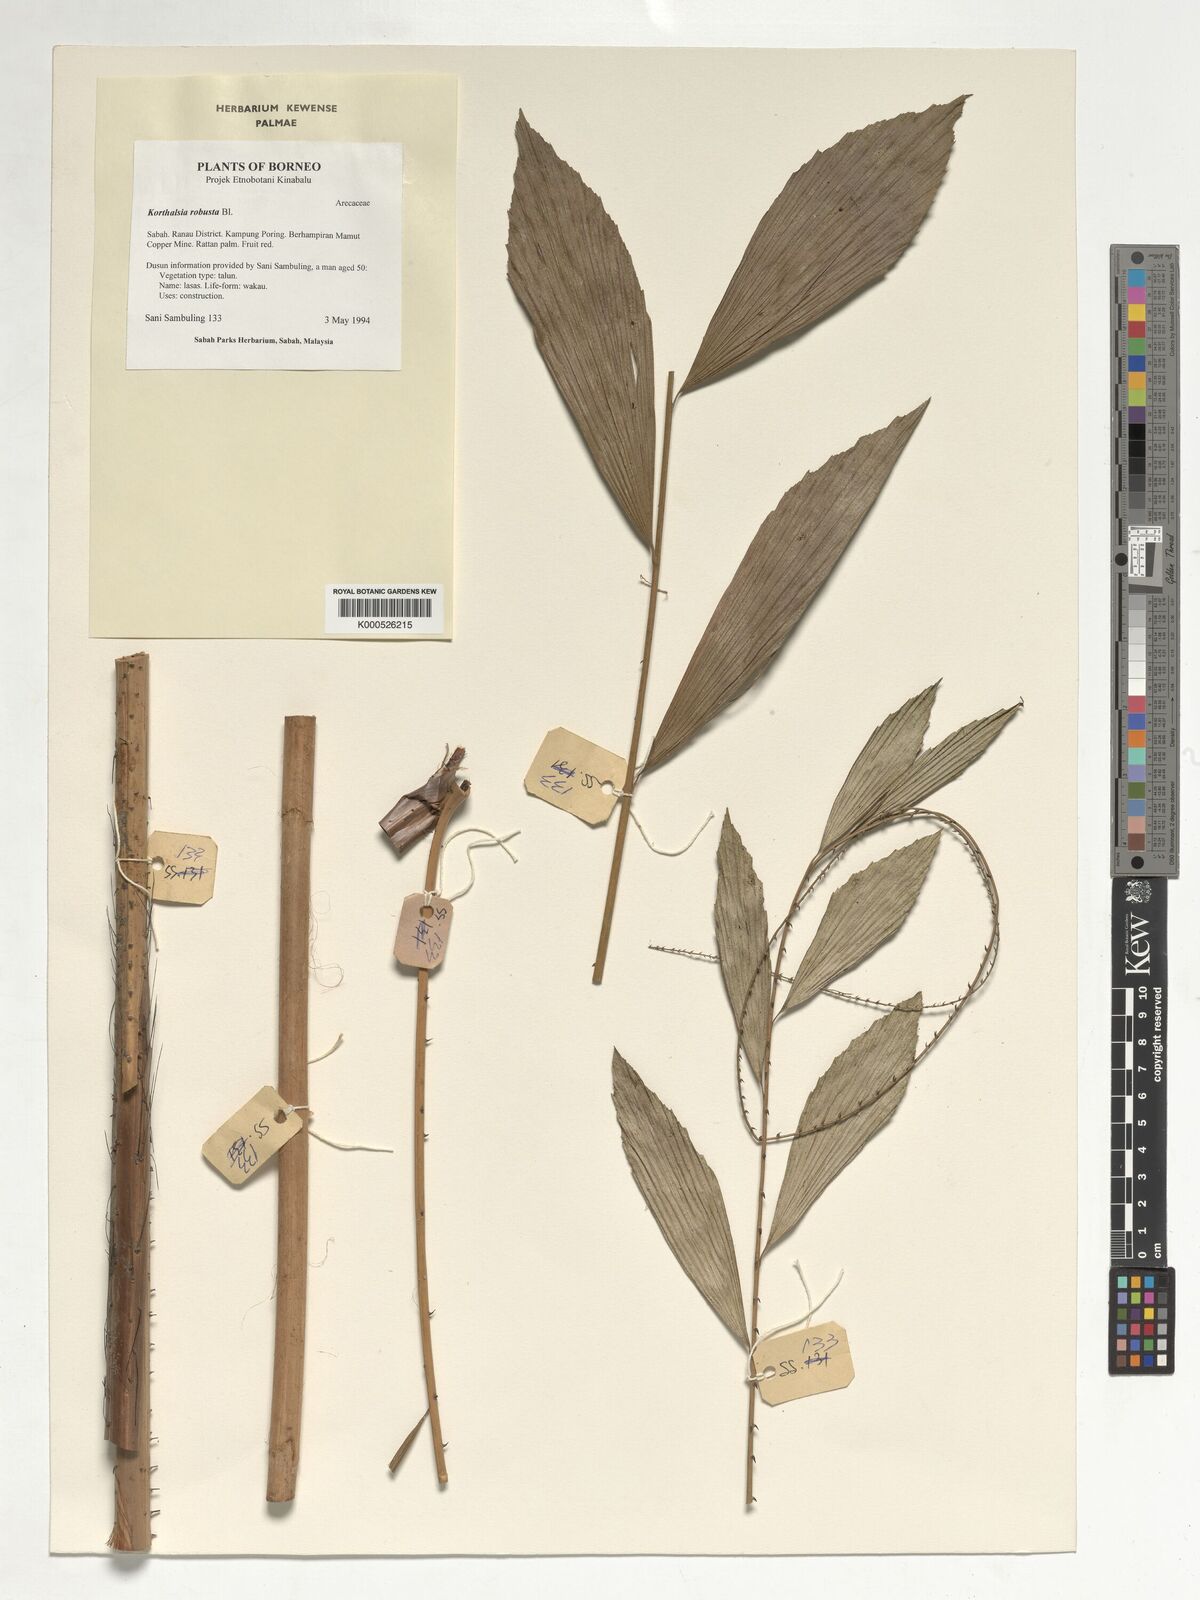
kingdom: Plantae
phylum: Tracheophyta
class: Liliopsida
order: Arecales
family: Arecaceae
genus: Korthalsia
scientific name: Korthalsia robusta
